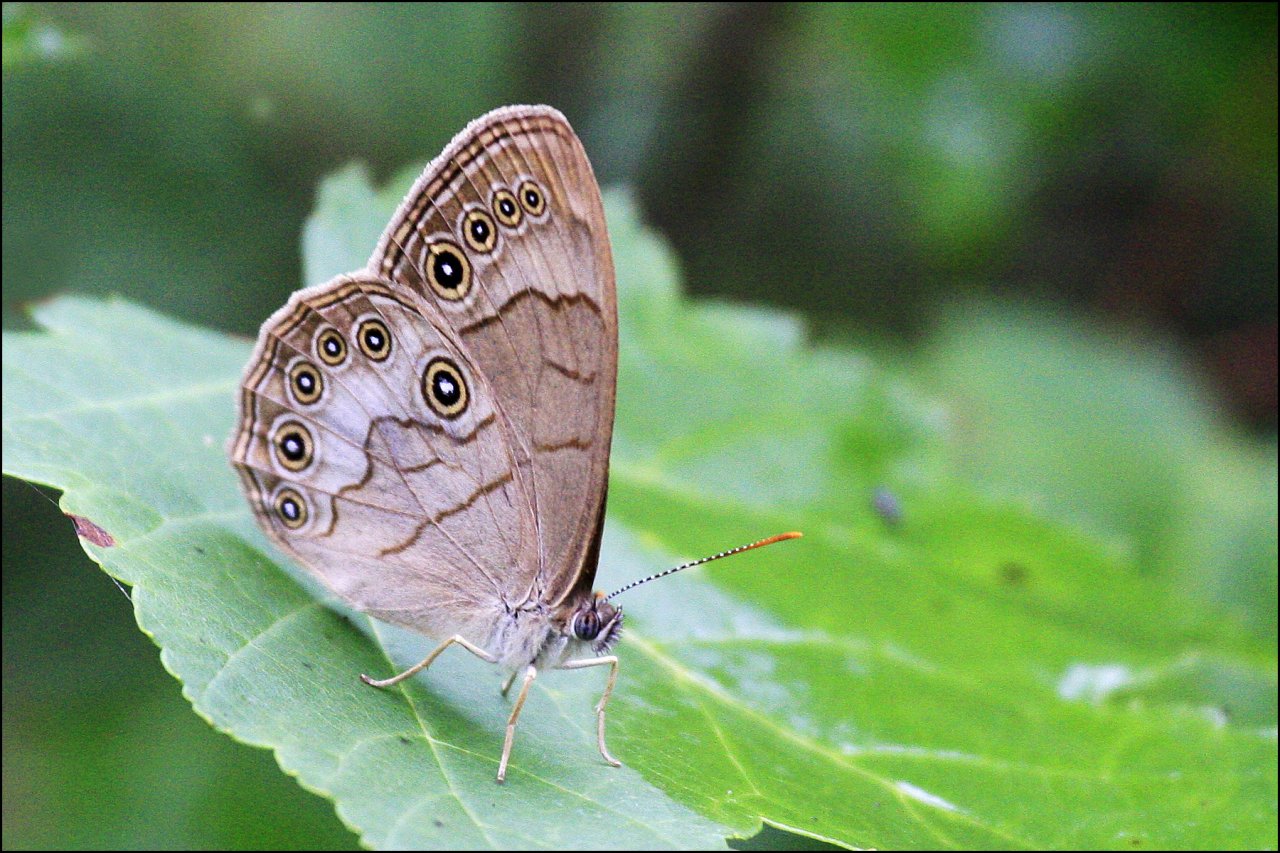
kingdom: Animalia
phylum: Arthropoda
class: Insecta
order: Lepidoptera
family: Nymphalidae
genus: Lethe
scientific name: Lethe eurydice
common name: Appalachian Eyed Brown
